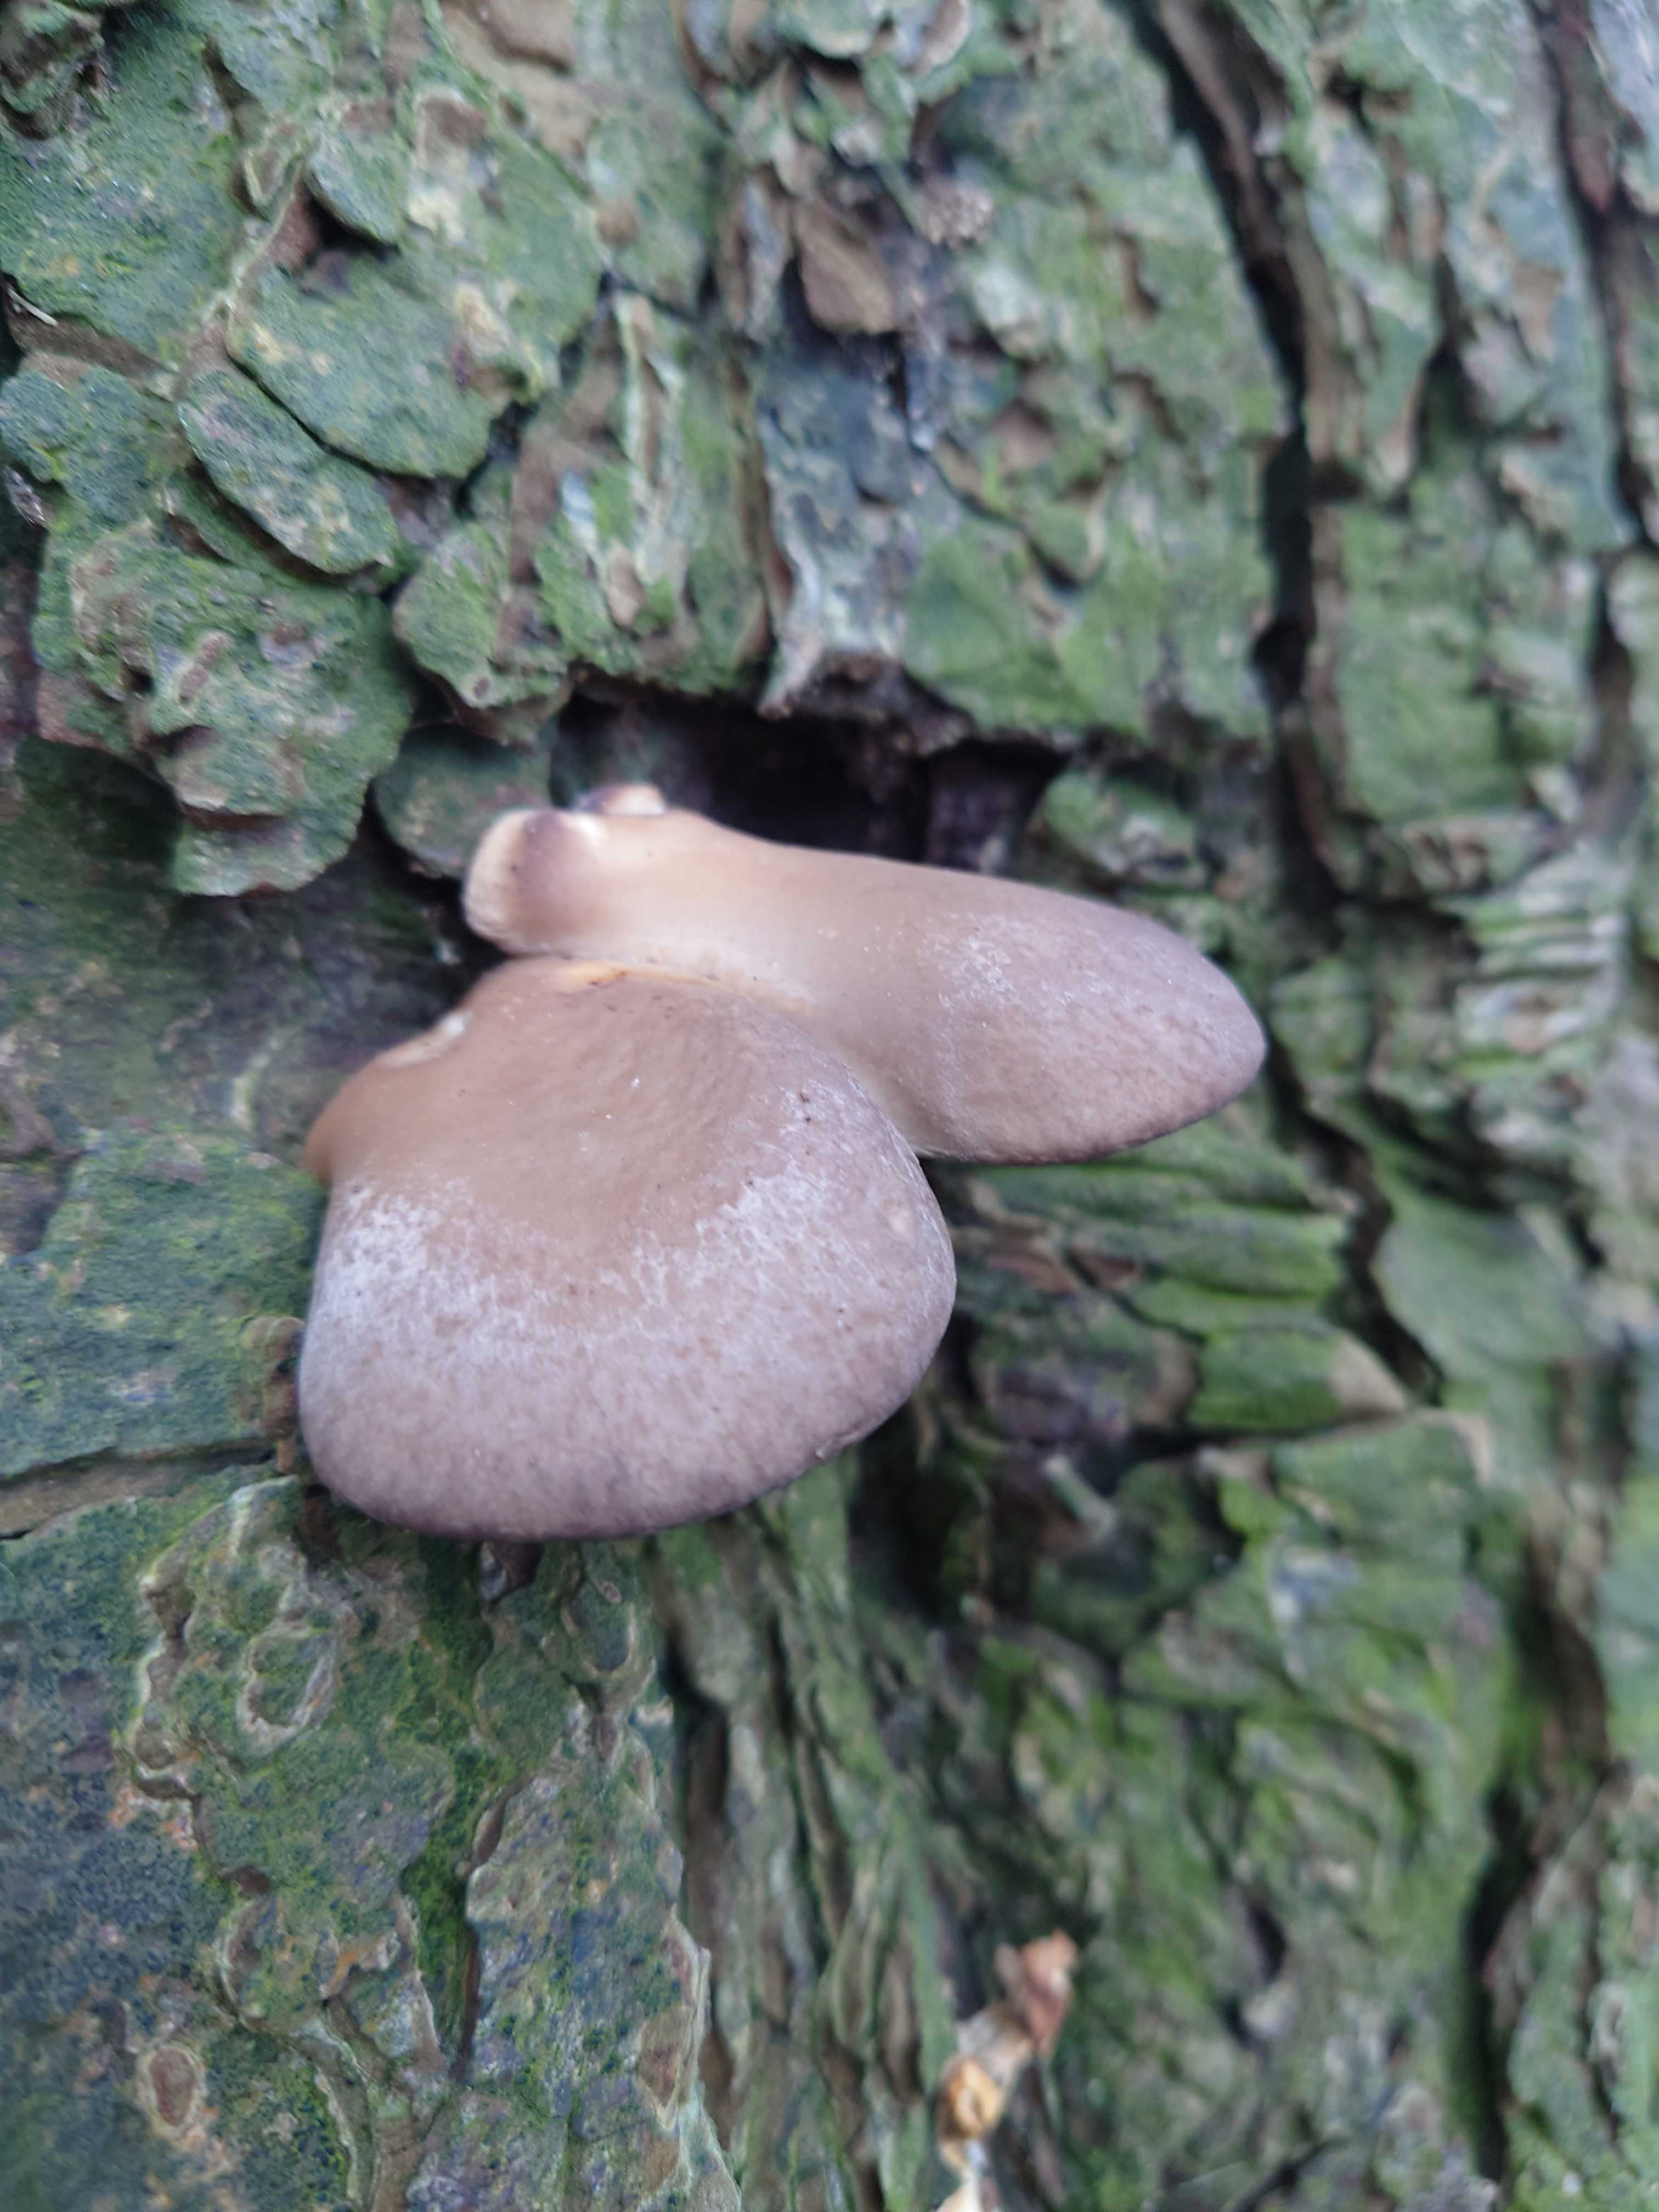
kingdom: Fungi
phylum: Basidiomycota
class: Agaricomycetes
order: Agaricales
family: Pleurotaceae
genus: Pleurotus
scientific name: Pleurotus ostreatus
